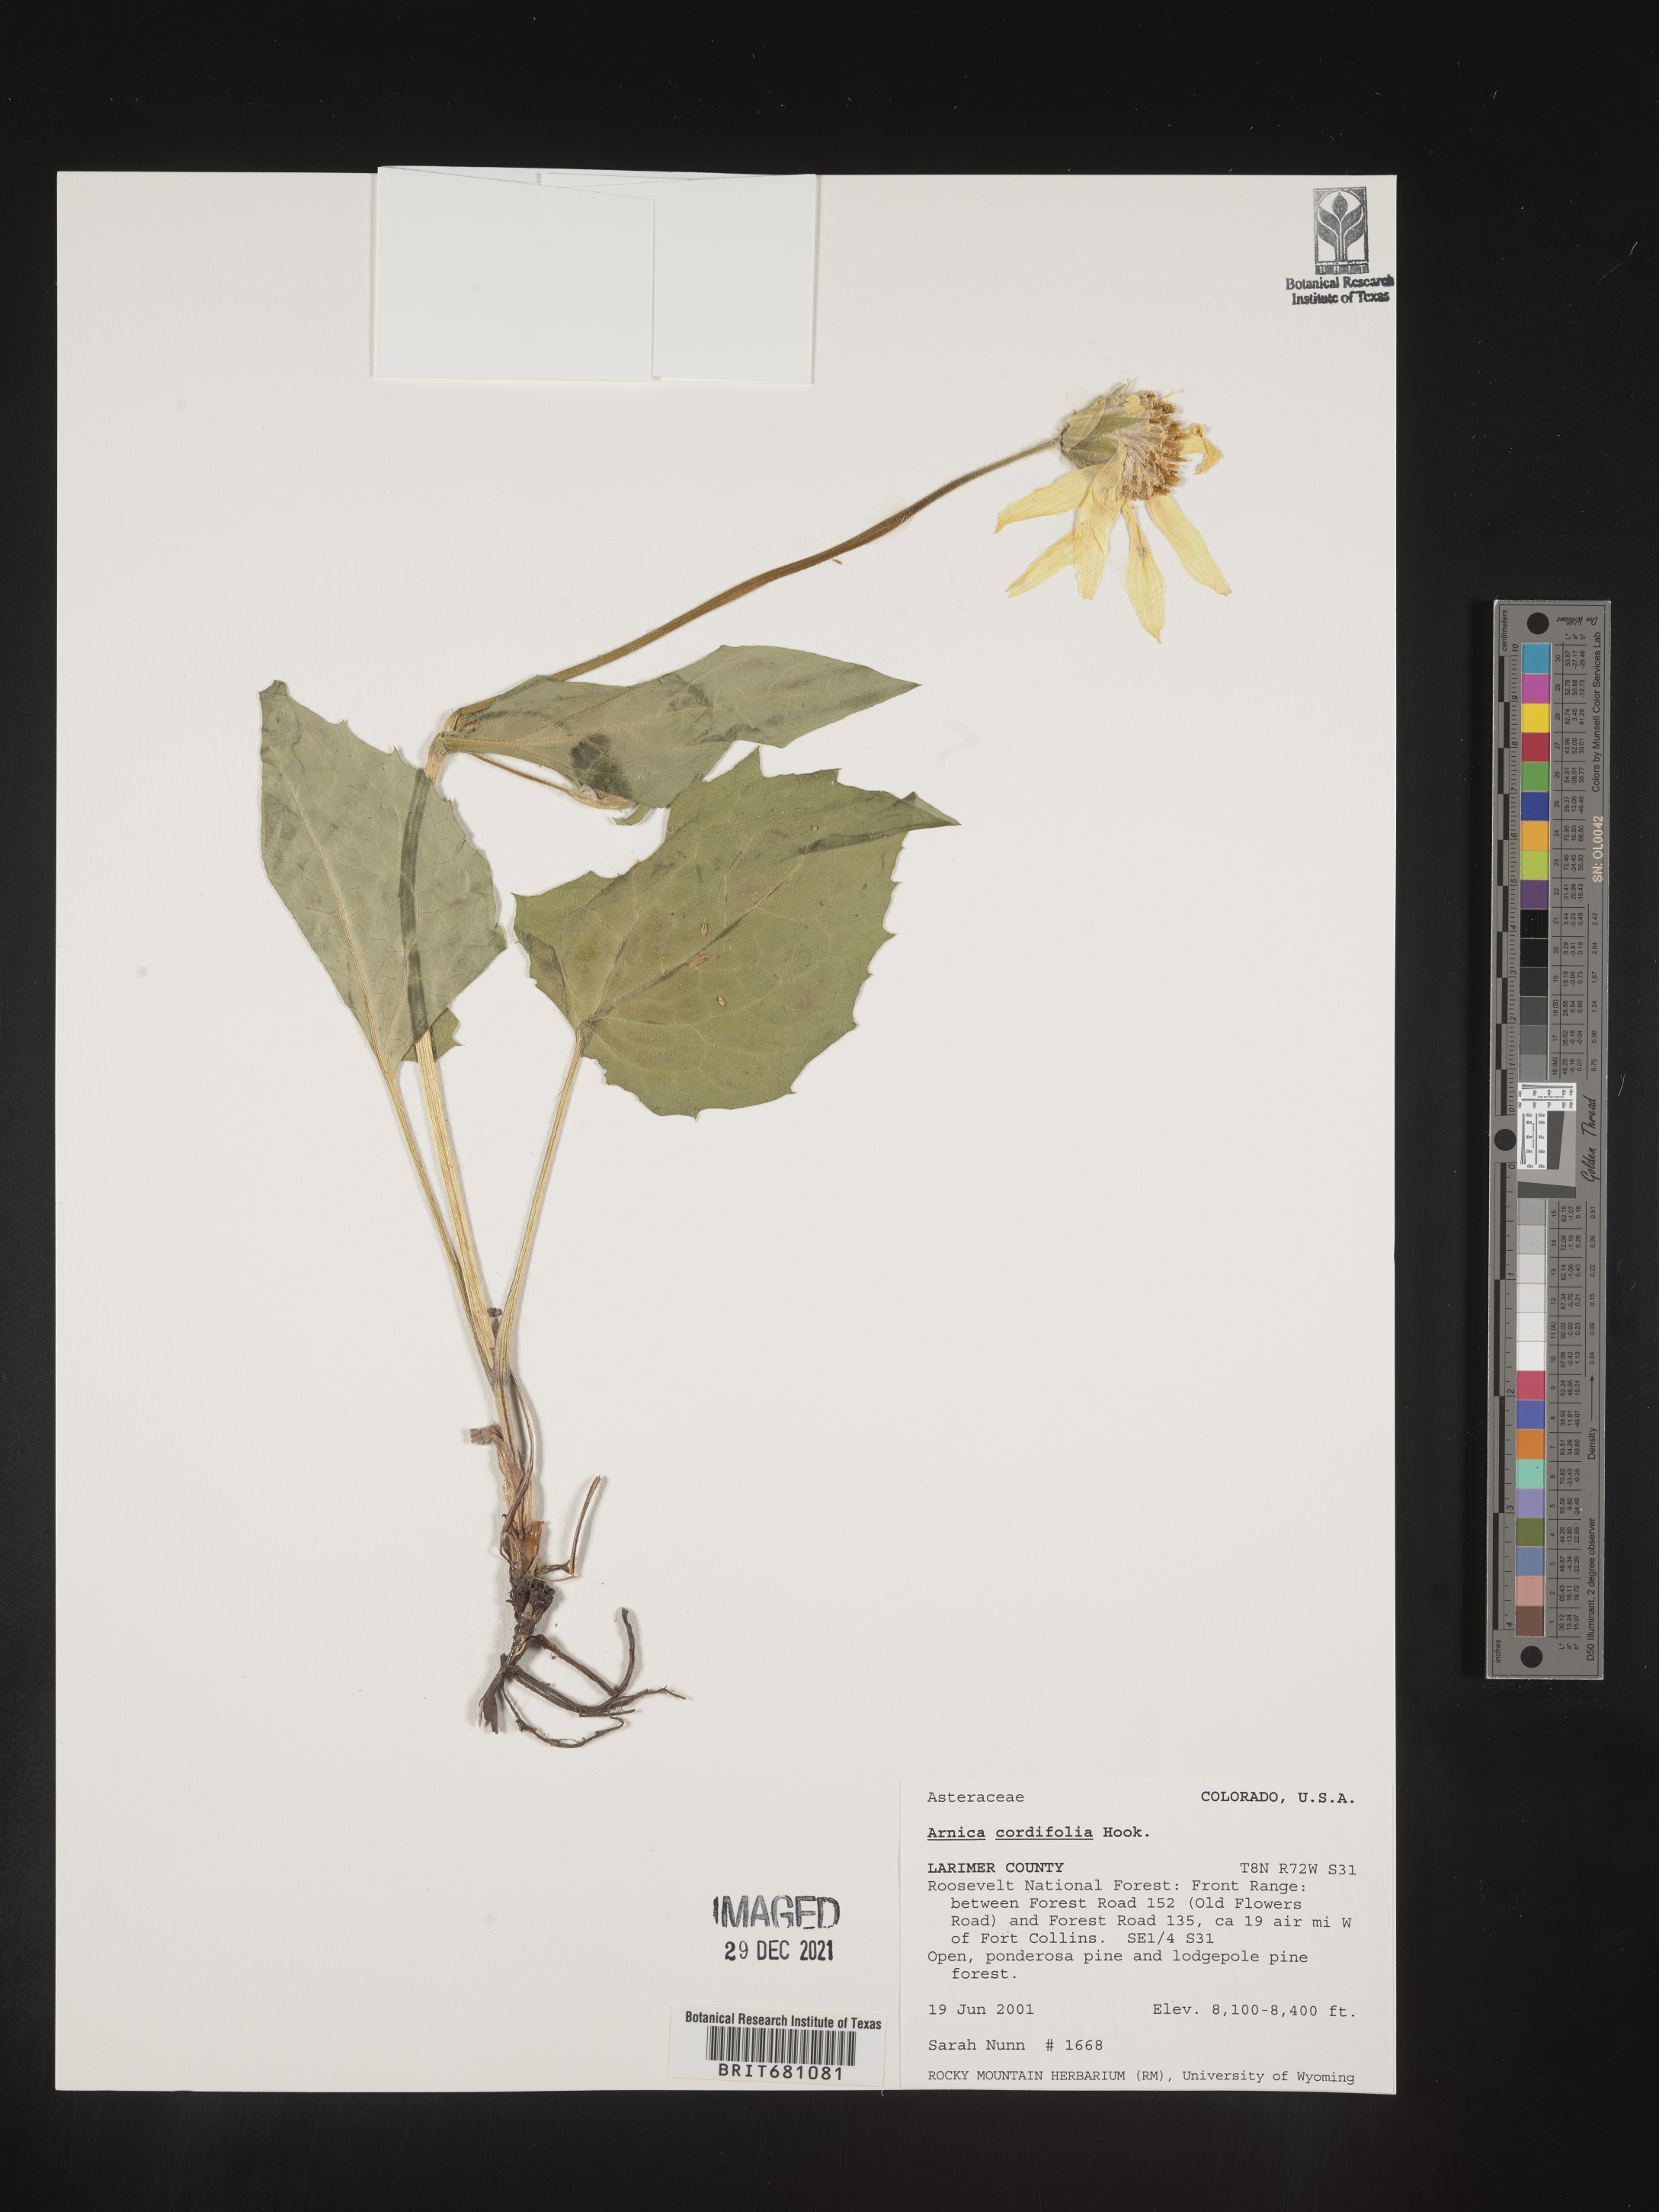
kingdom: Plantae
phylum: Tracheophyta
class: Magnoliopsida
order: Asterales
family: Asteraceae
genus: Arnica
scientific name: Arnica cordifolia
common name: Heart-leaf arnica
